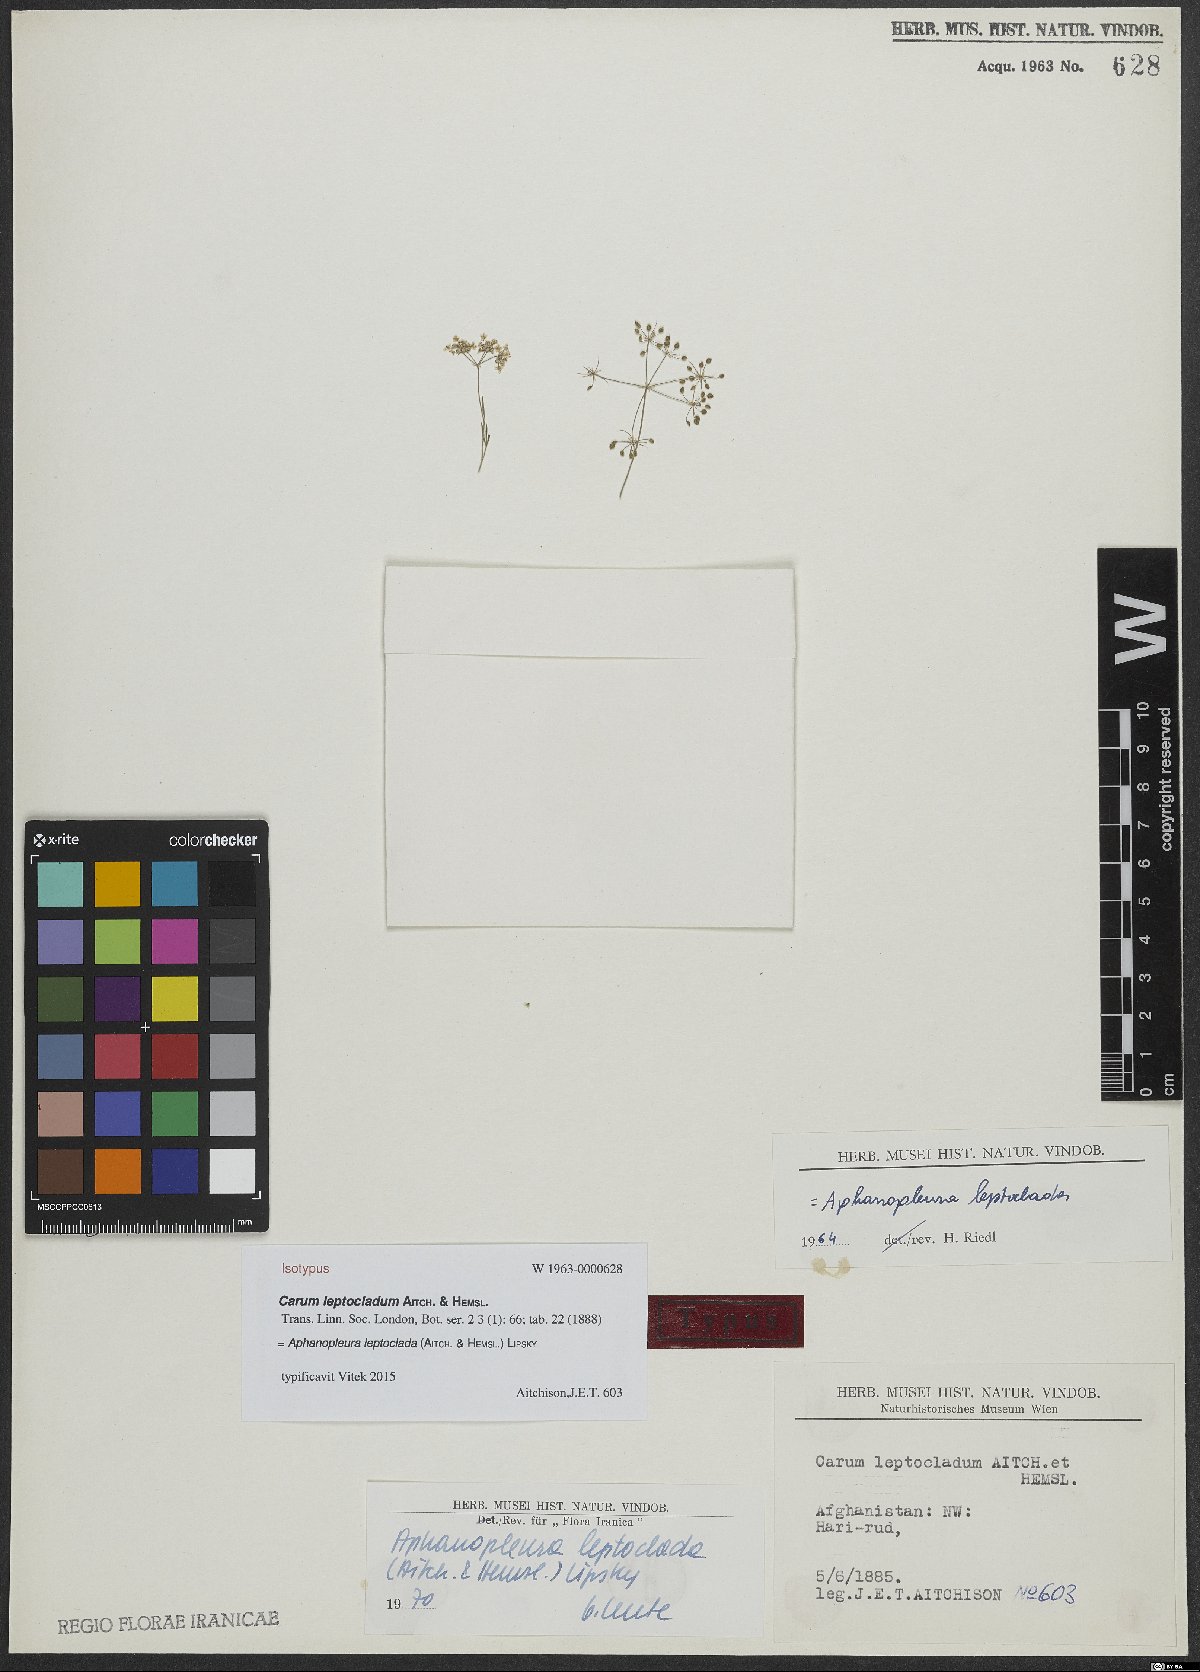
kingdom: Plantae
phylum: Tracheophyta
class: Magnoliopsida
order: Apiales
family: Apiaceae
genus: Pimpinella
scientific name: Pimpinella leptoclada
